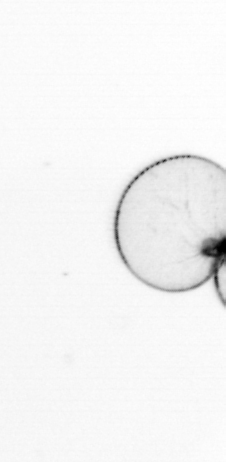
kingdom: Chromista
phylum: Myzozoa
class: Dinophyceae
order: Noctilucales
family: Noctilucaceae
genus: Noctiluca
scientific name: Noctiluca scintillans
